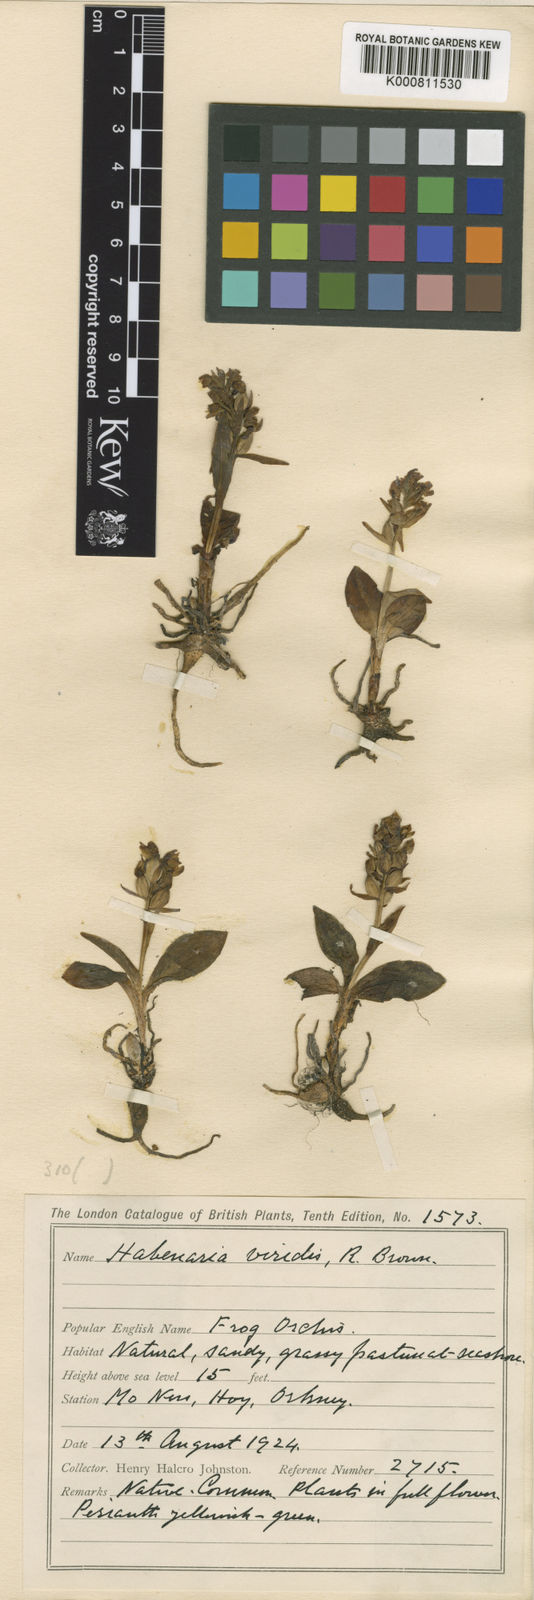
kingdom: Plantae
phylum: Tracheophyta
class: Liliopsida
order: Asparagales
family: Orchidaceae
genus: Dactylorhiza
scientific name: Dactylorhiza viridis
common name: Longbract frog orchid
